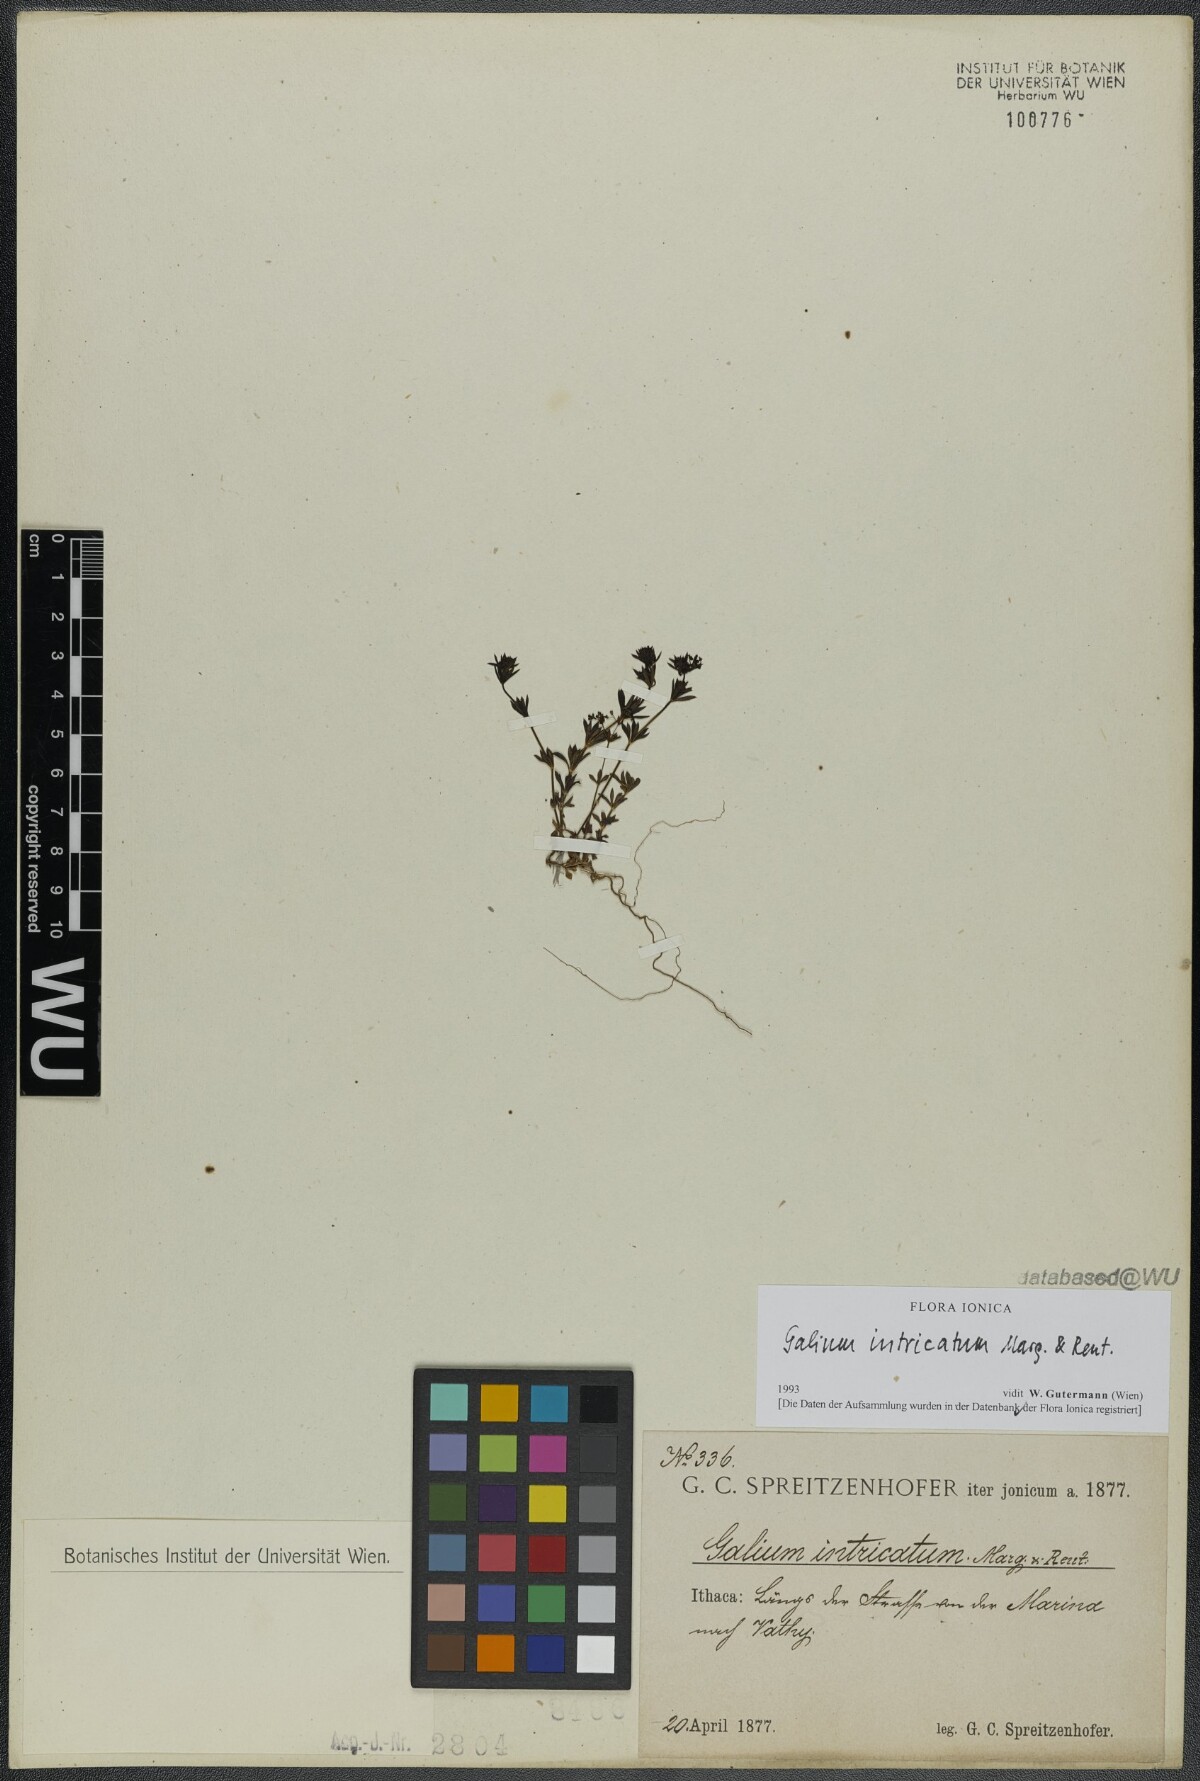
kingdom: Plantae
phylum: Tracheophyta
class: Magnoliopsida
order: Gentianales
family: Rubiaceae
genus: Galium
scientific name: Galium intricatum
